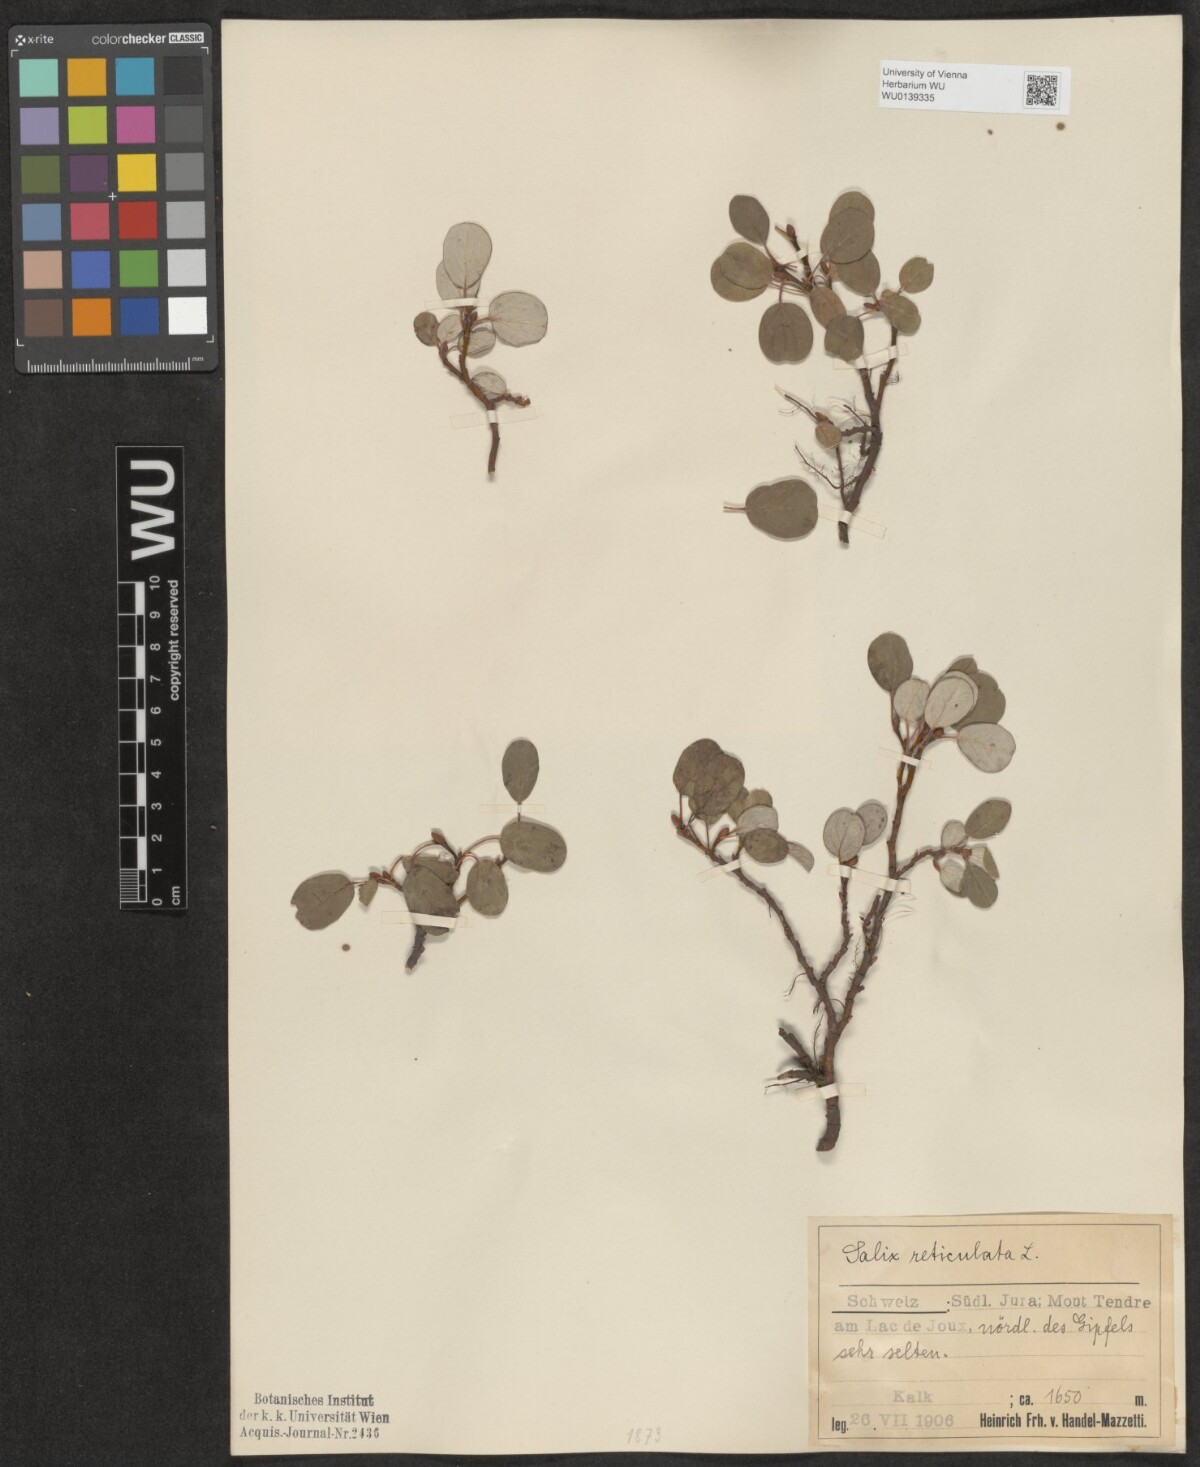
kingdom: Plantae
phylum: Tracheophyta
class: Magnoliopsida
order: Malpighiales
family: Salicaceae
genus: Salix
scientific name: Salix reticulata
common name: Net-leaved willow
